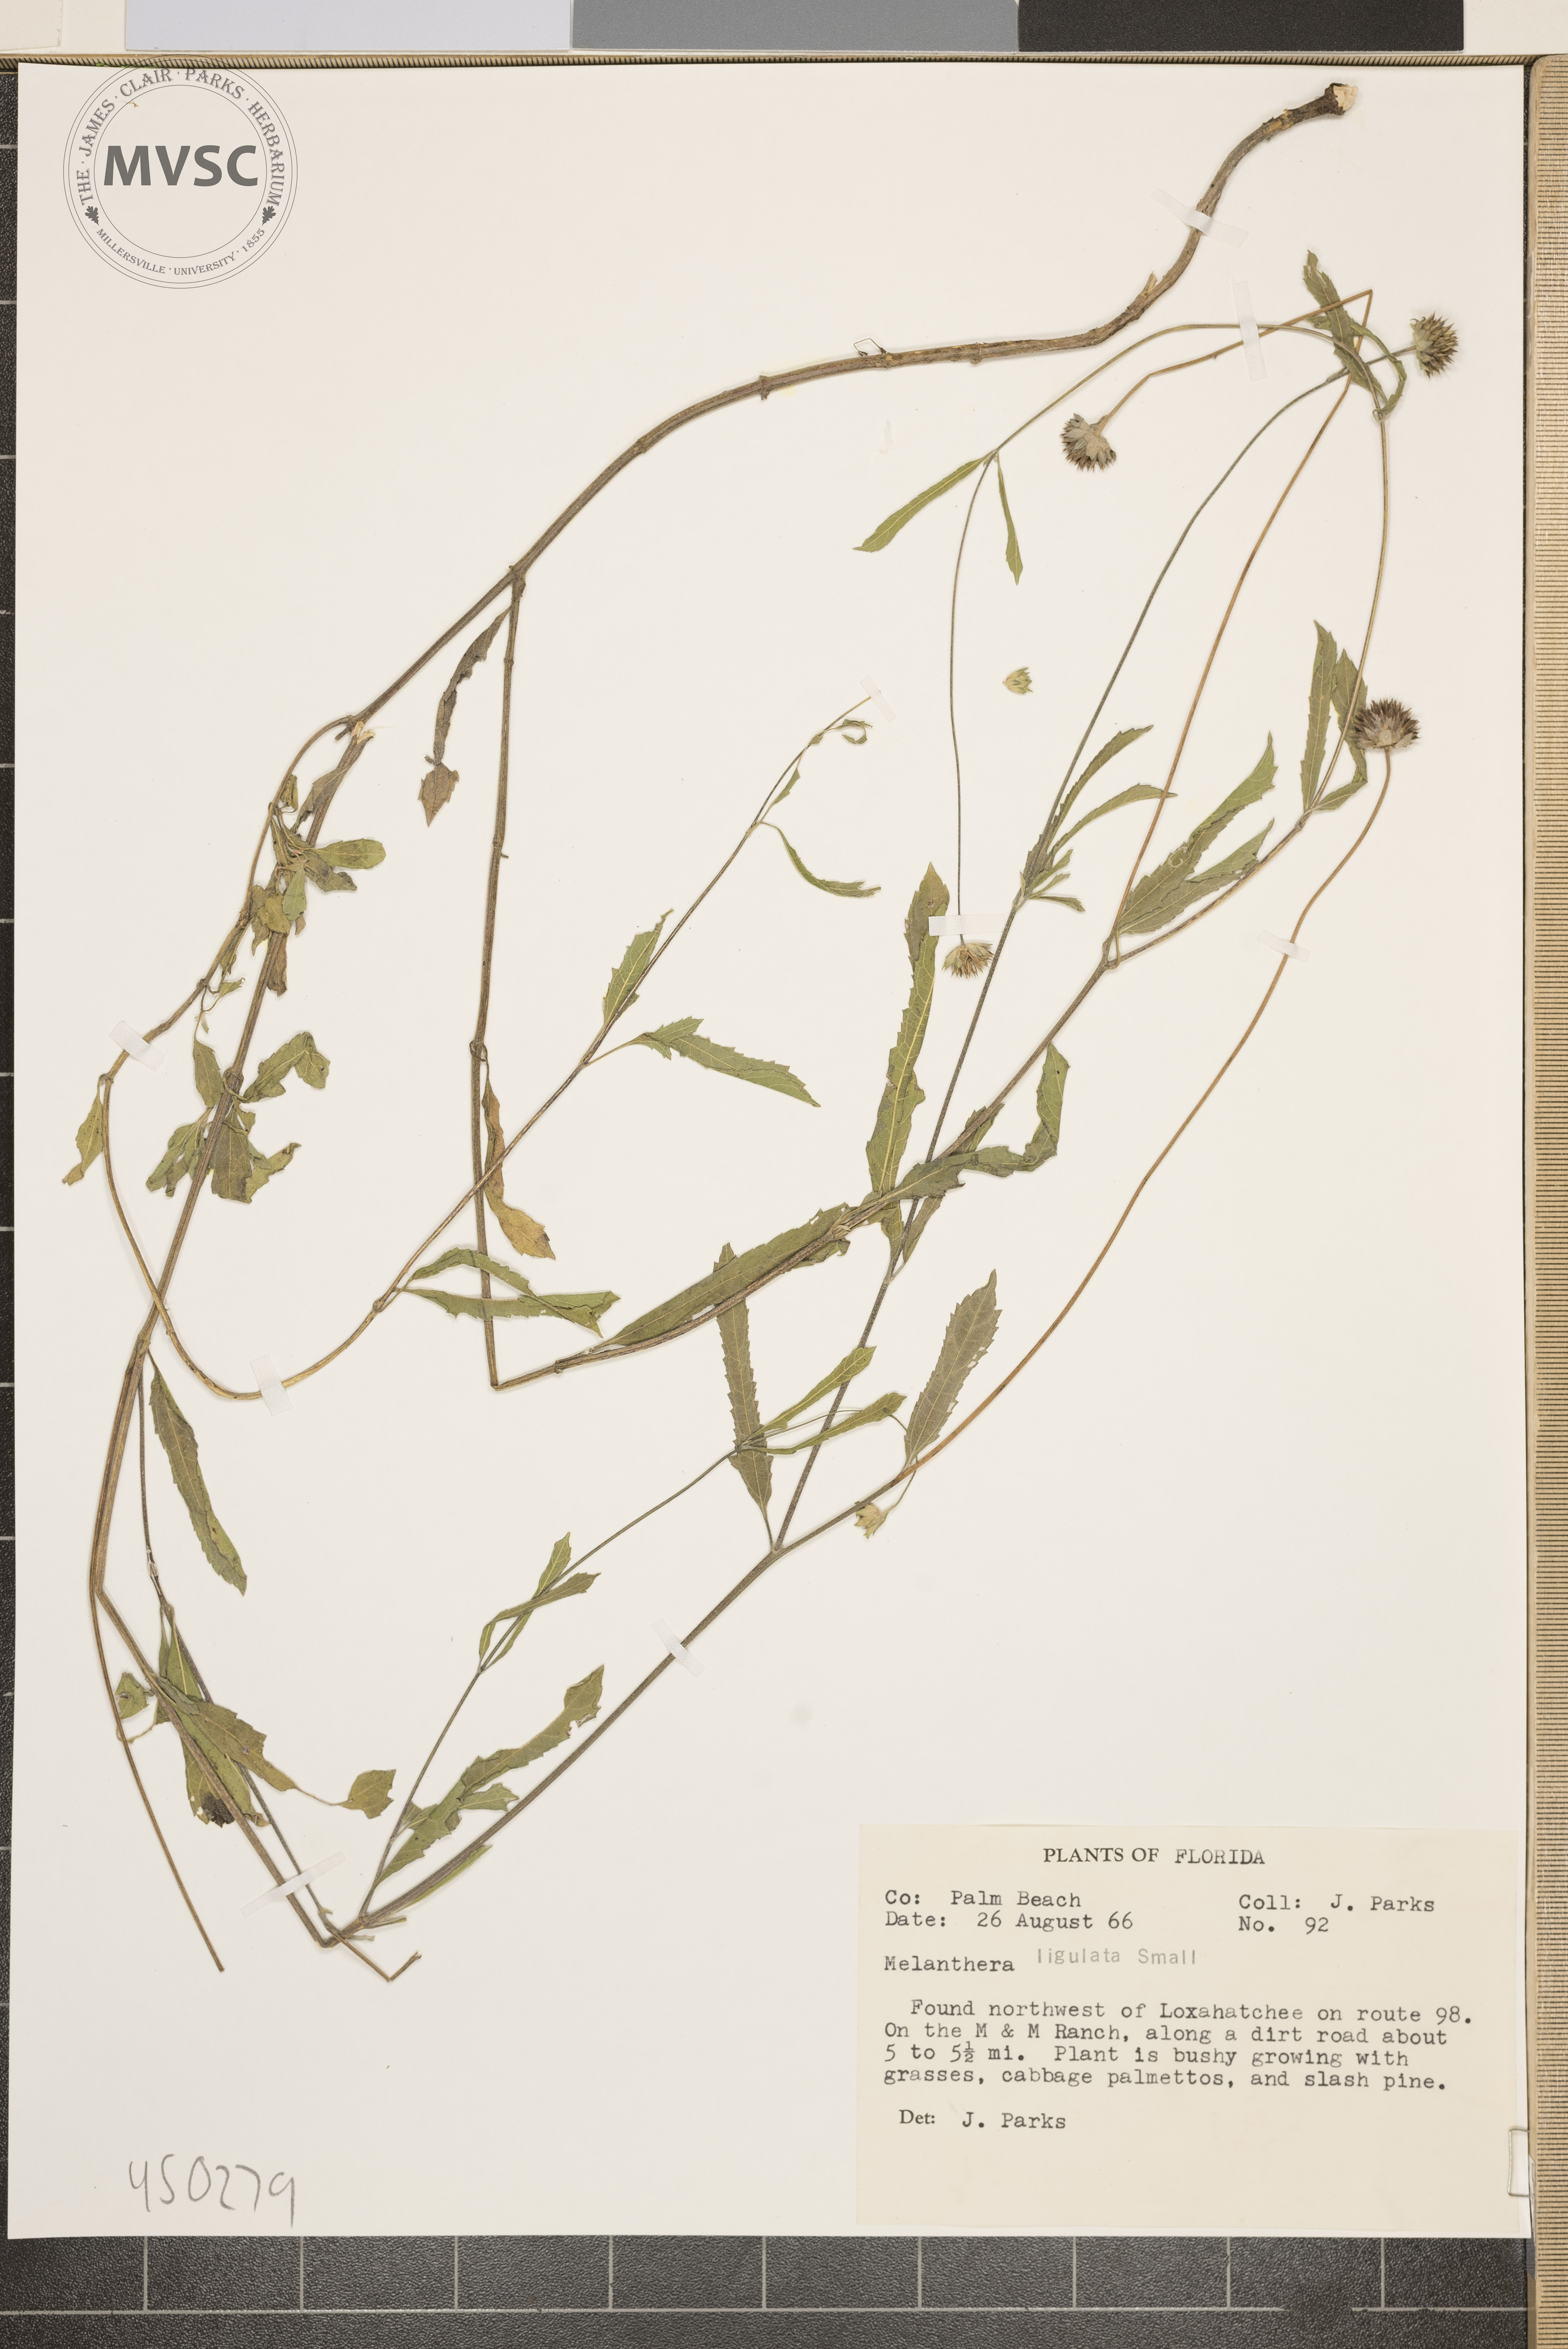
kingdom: Plantae
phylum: Tracheophyta
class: Magnoliopsida
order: Asterales
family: Asteraceae
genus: Melanthera
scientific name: Melanthera nivea
